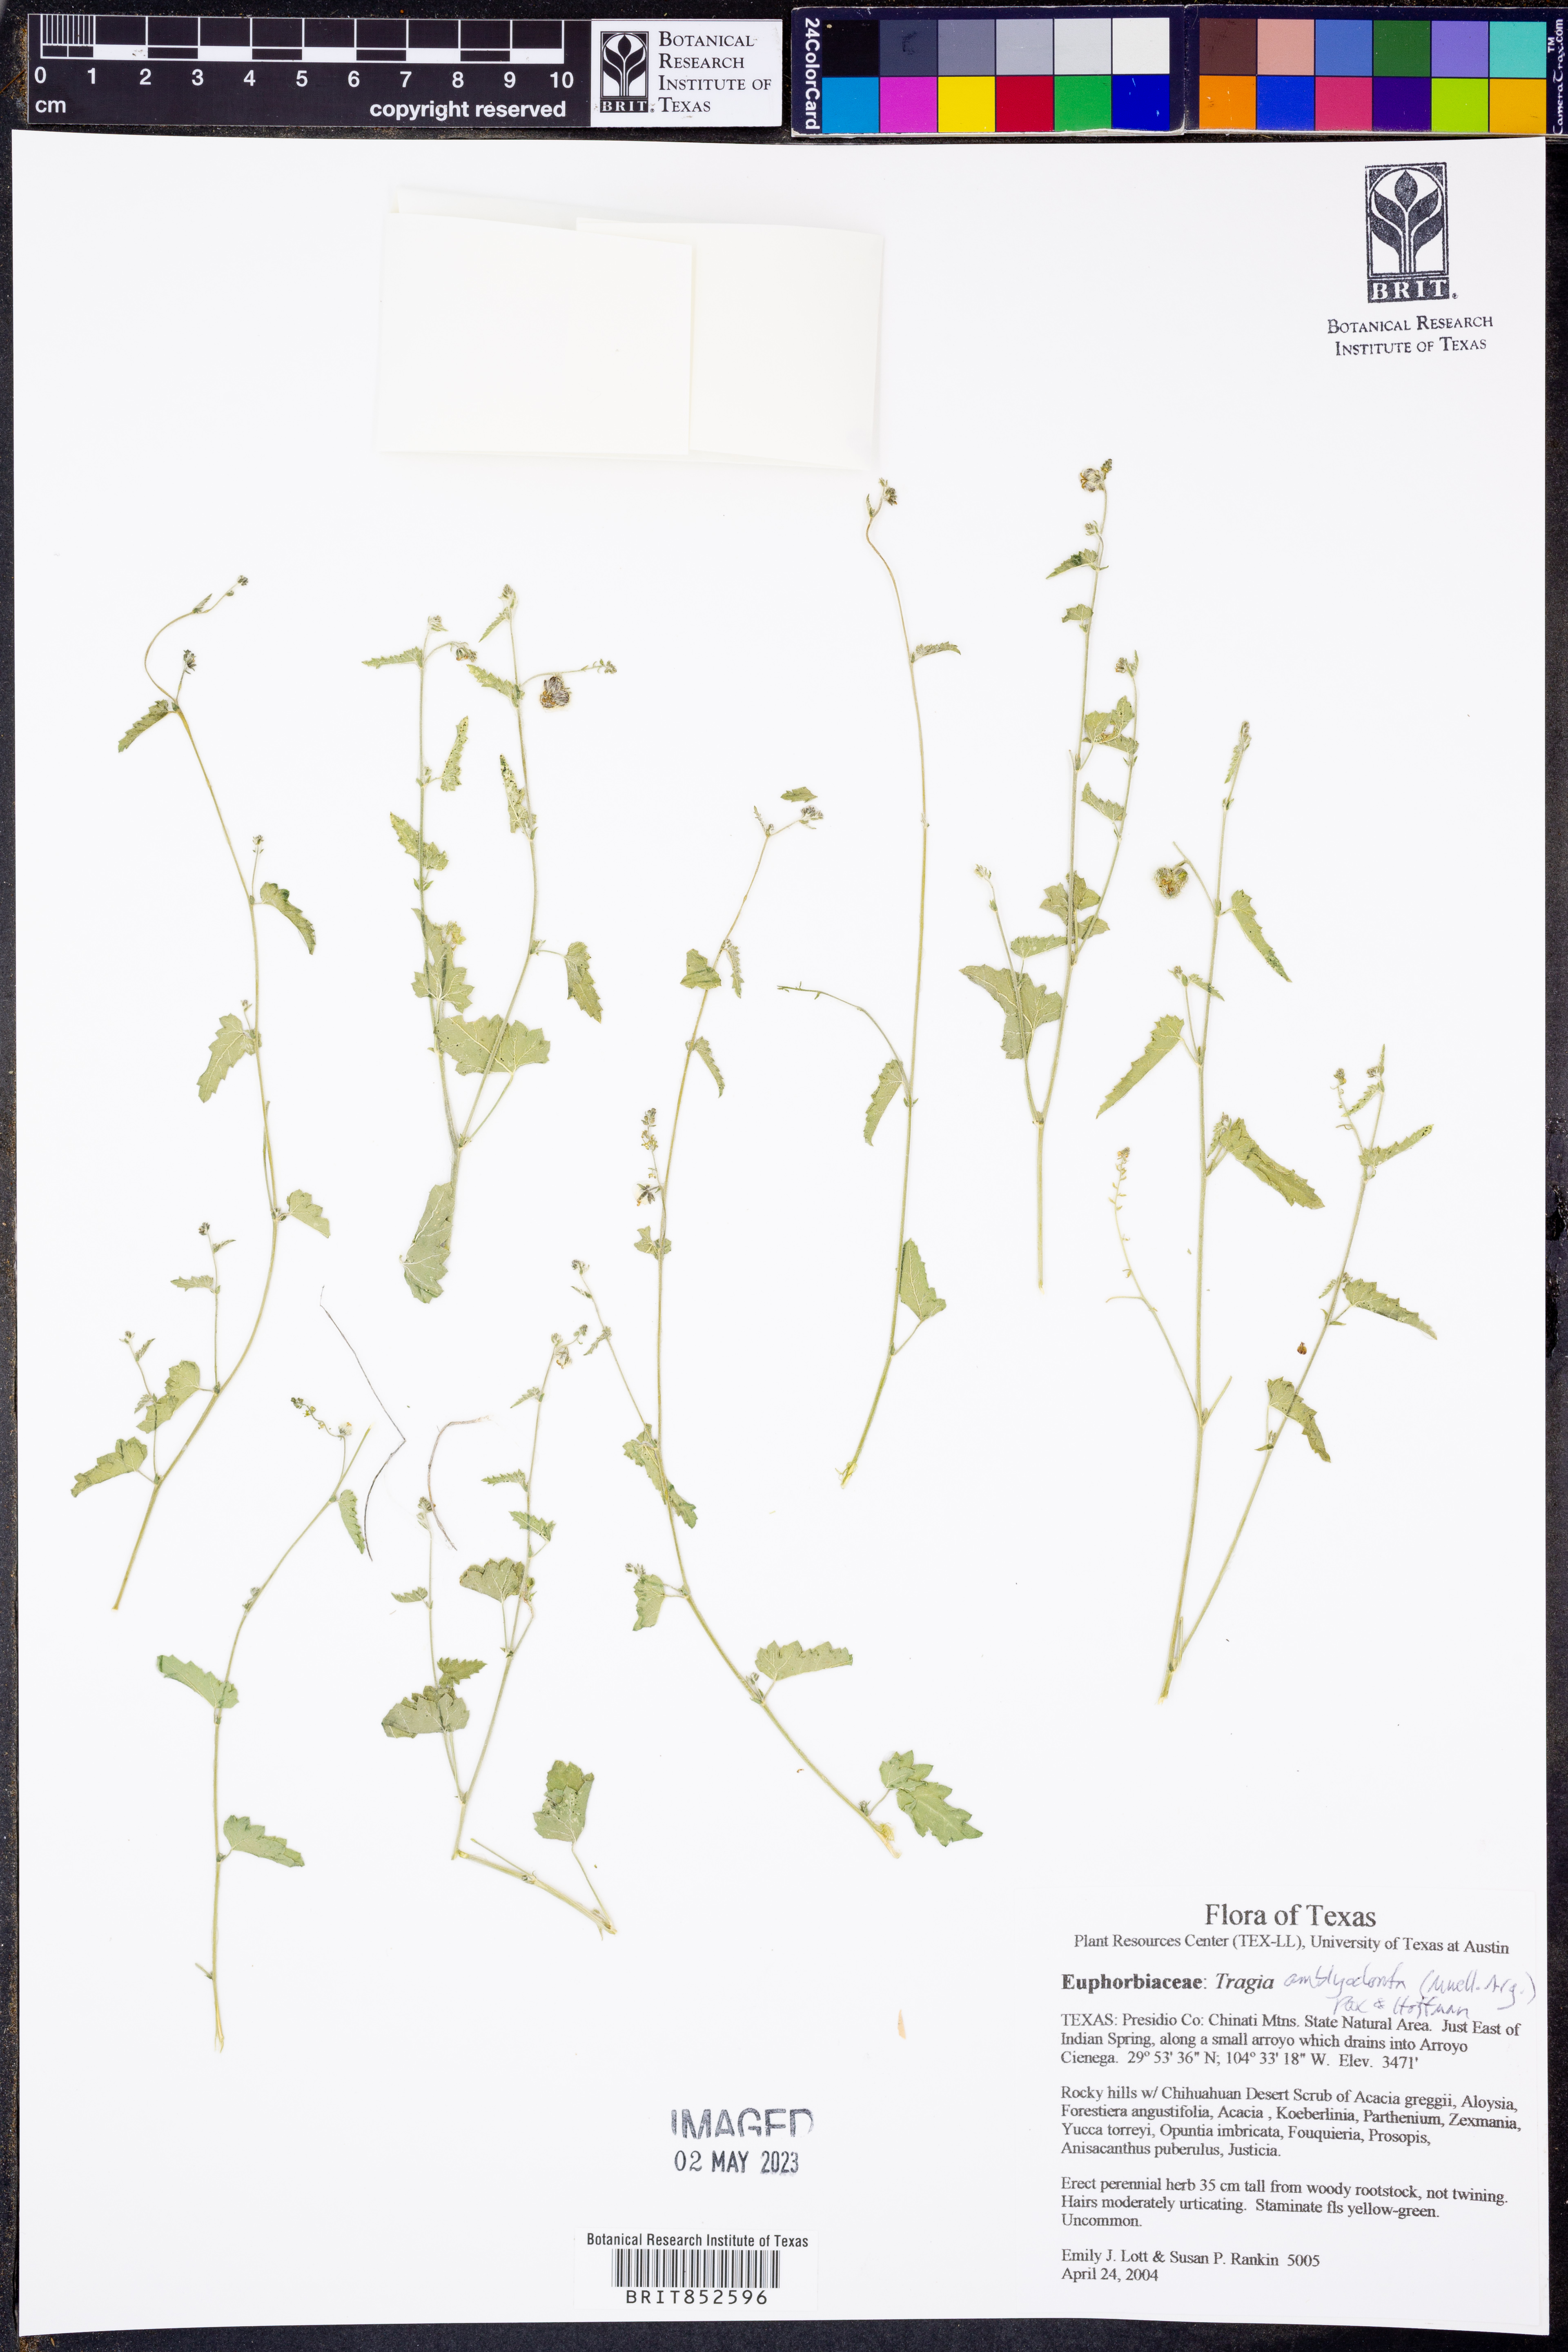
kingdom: Plantae
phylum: Tracheophyta
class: Magnoliopsida
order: Malpighiales
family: Euphorbiaceae
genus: Tragia
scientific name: Tragia amblyodonta
